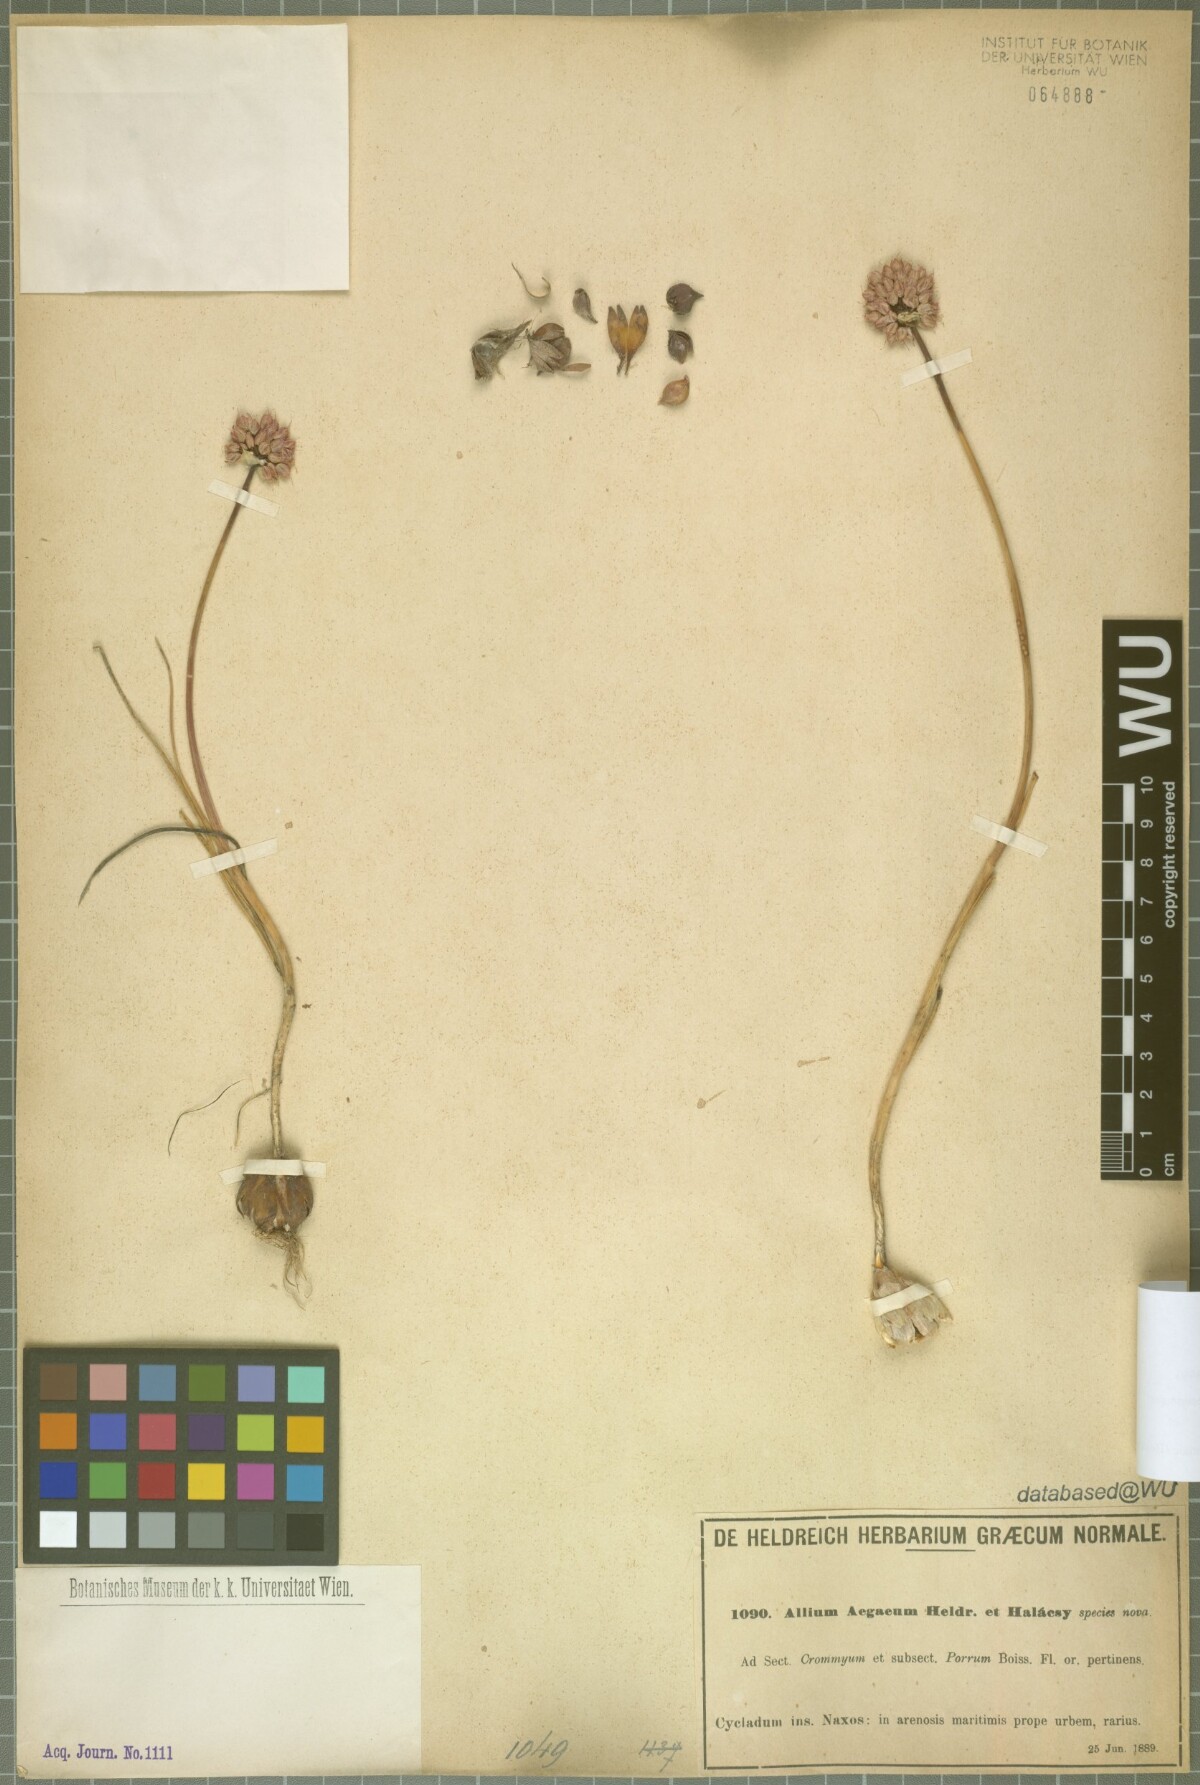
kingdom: Plantae
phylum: Tracheophyta
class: Liliopsida
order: Asparagales
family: Amaryllidaceae
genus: Allium
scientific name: Allium sphaerocephalon
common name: Round-headed leek
